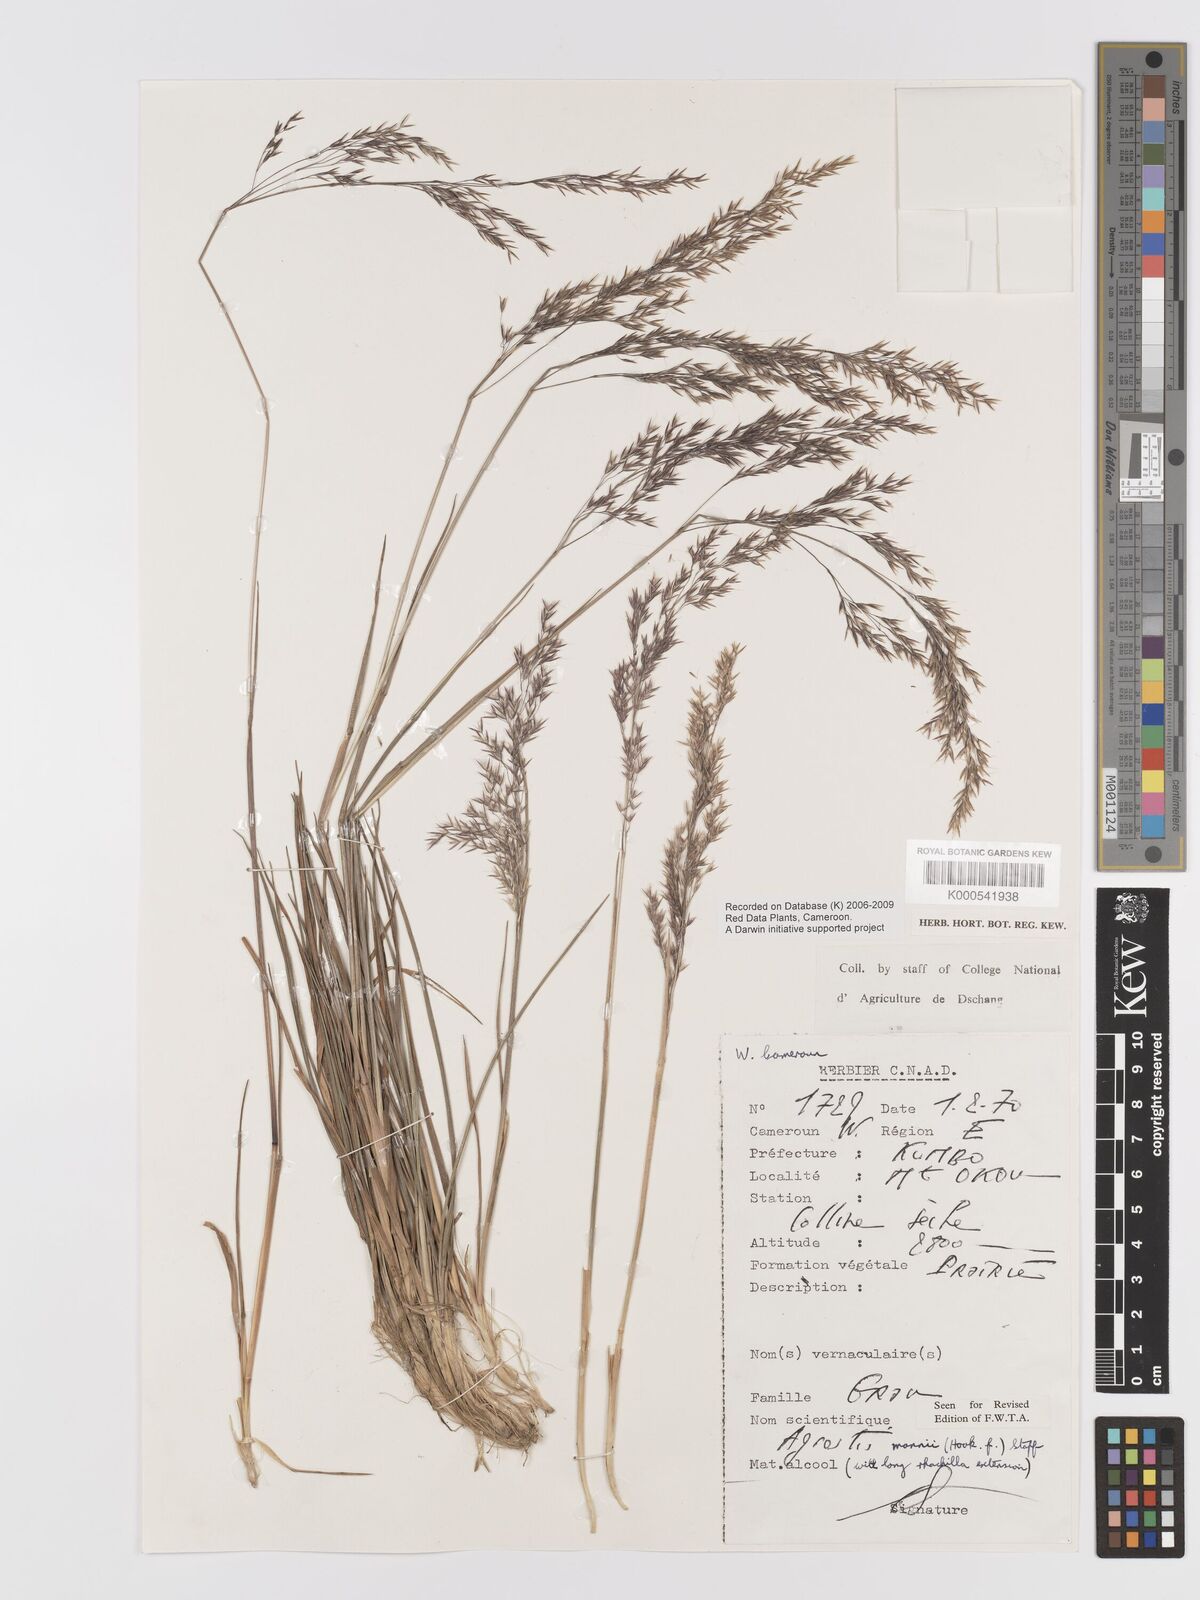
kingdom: Plantae
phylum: Tracheophyta
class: Liliopsida
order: Poales
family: Poaceae
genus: Agrostis
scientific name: Agrostis mannii
